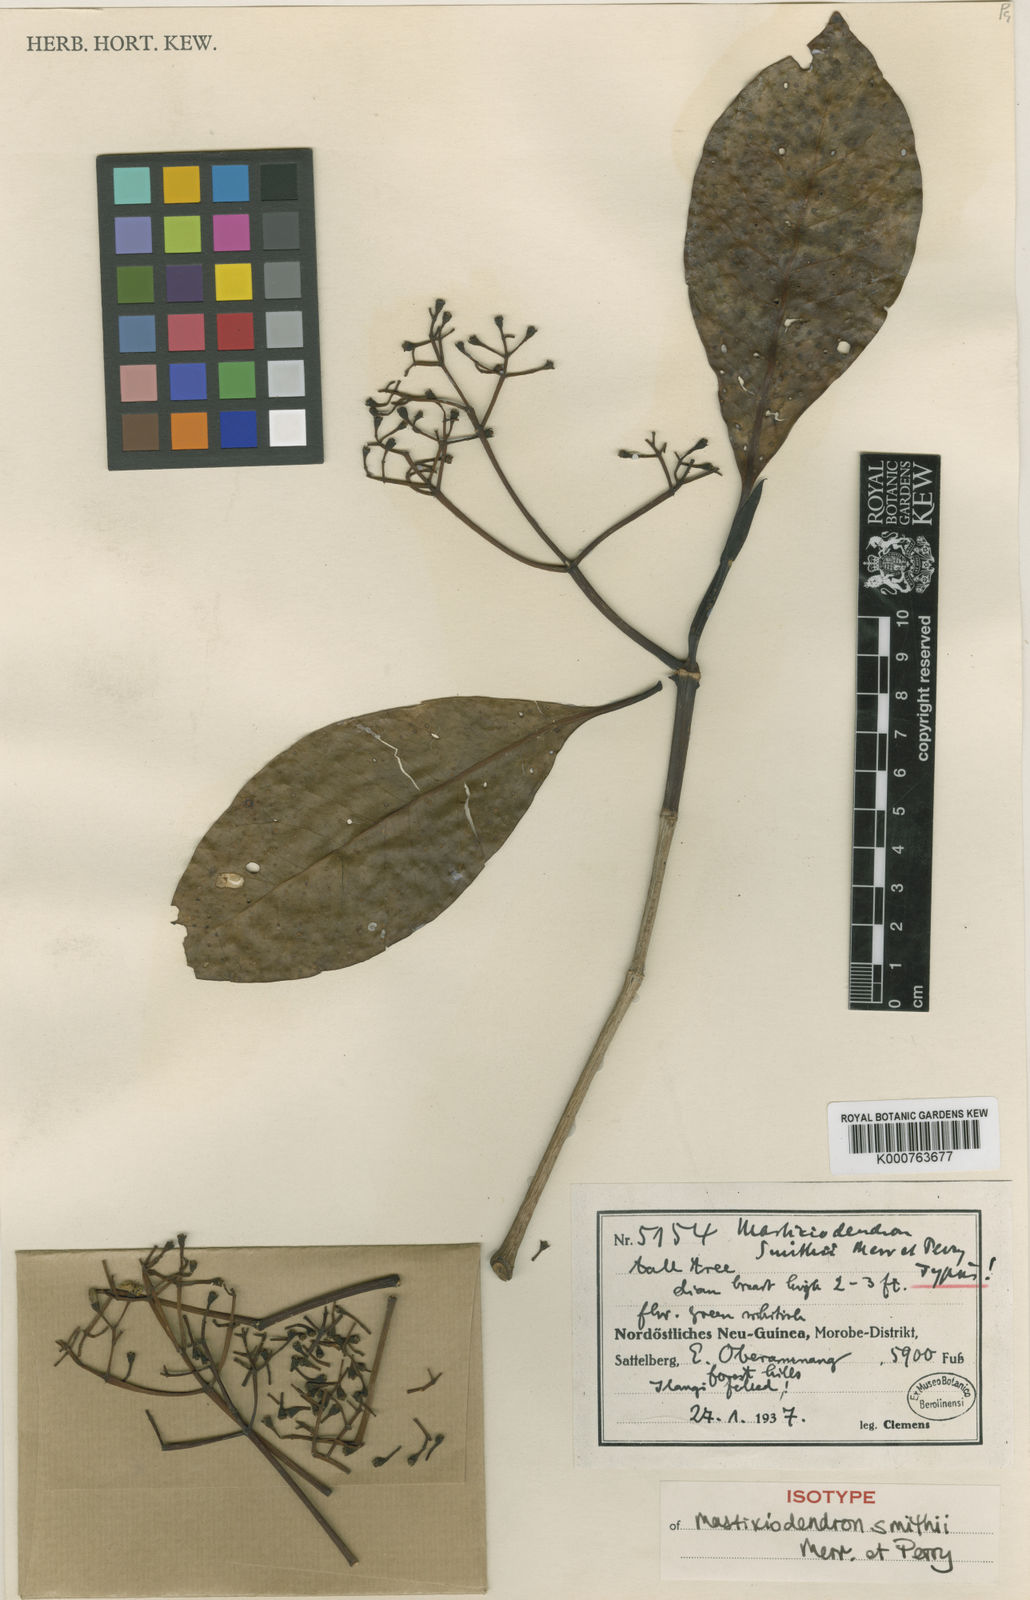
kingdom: Plantae
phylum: Tracheophyta
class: Magnoliopsida
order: Gentianales
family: Rubiaceae
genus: Mastixiodendron
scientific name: Mastixiodendron smithii
